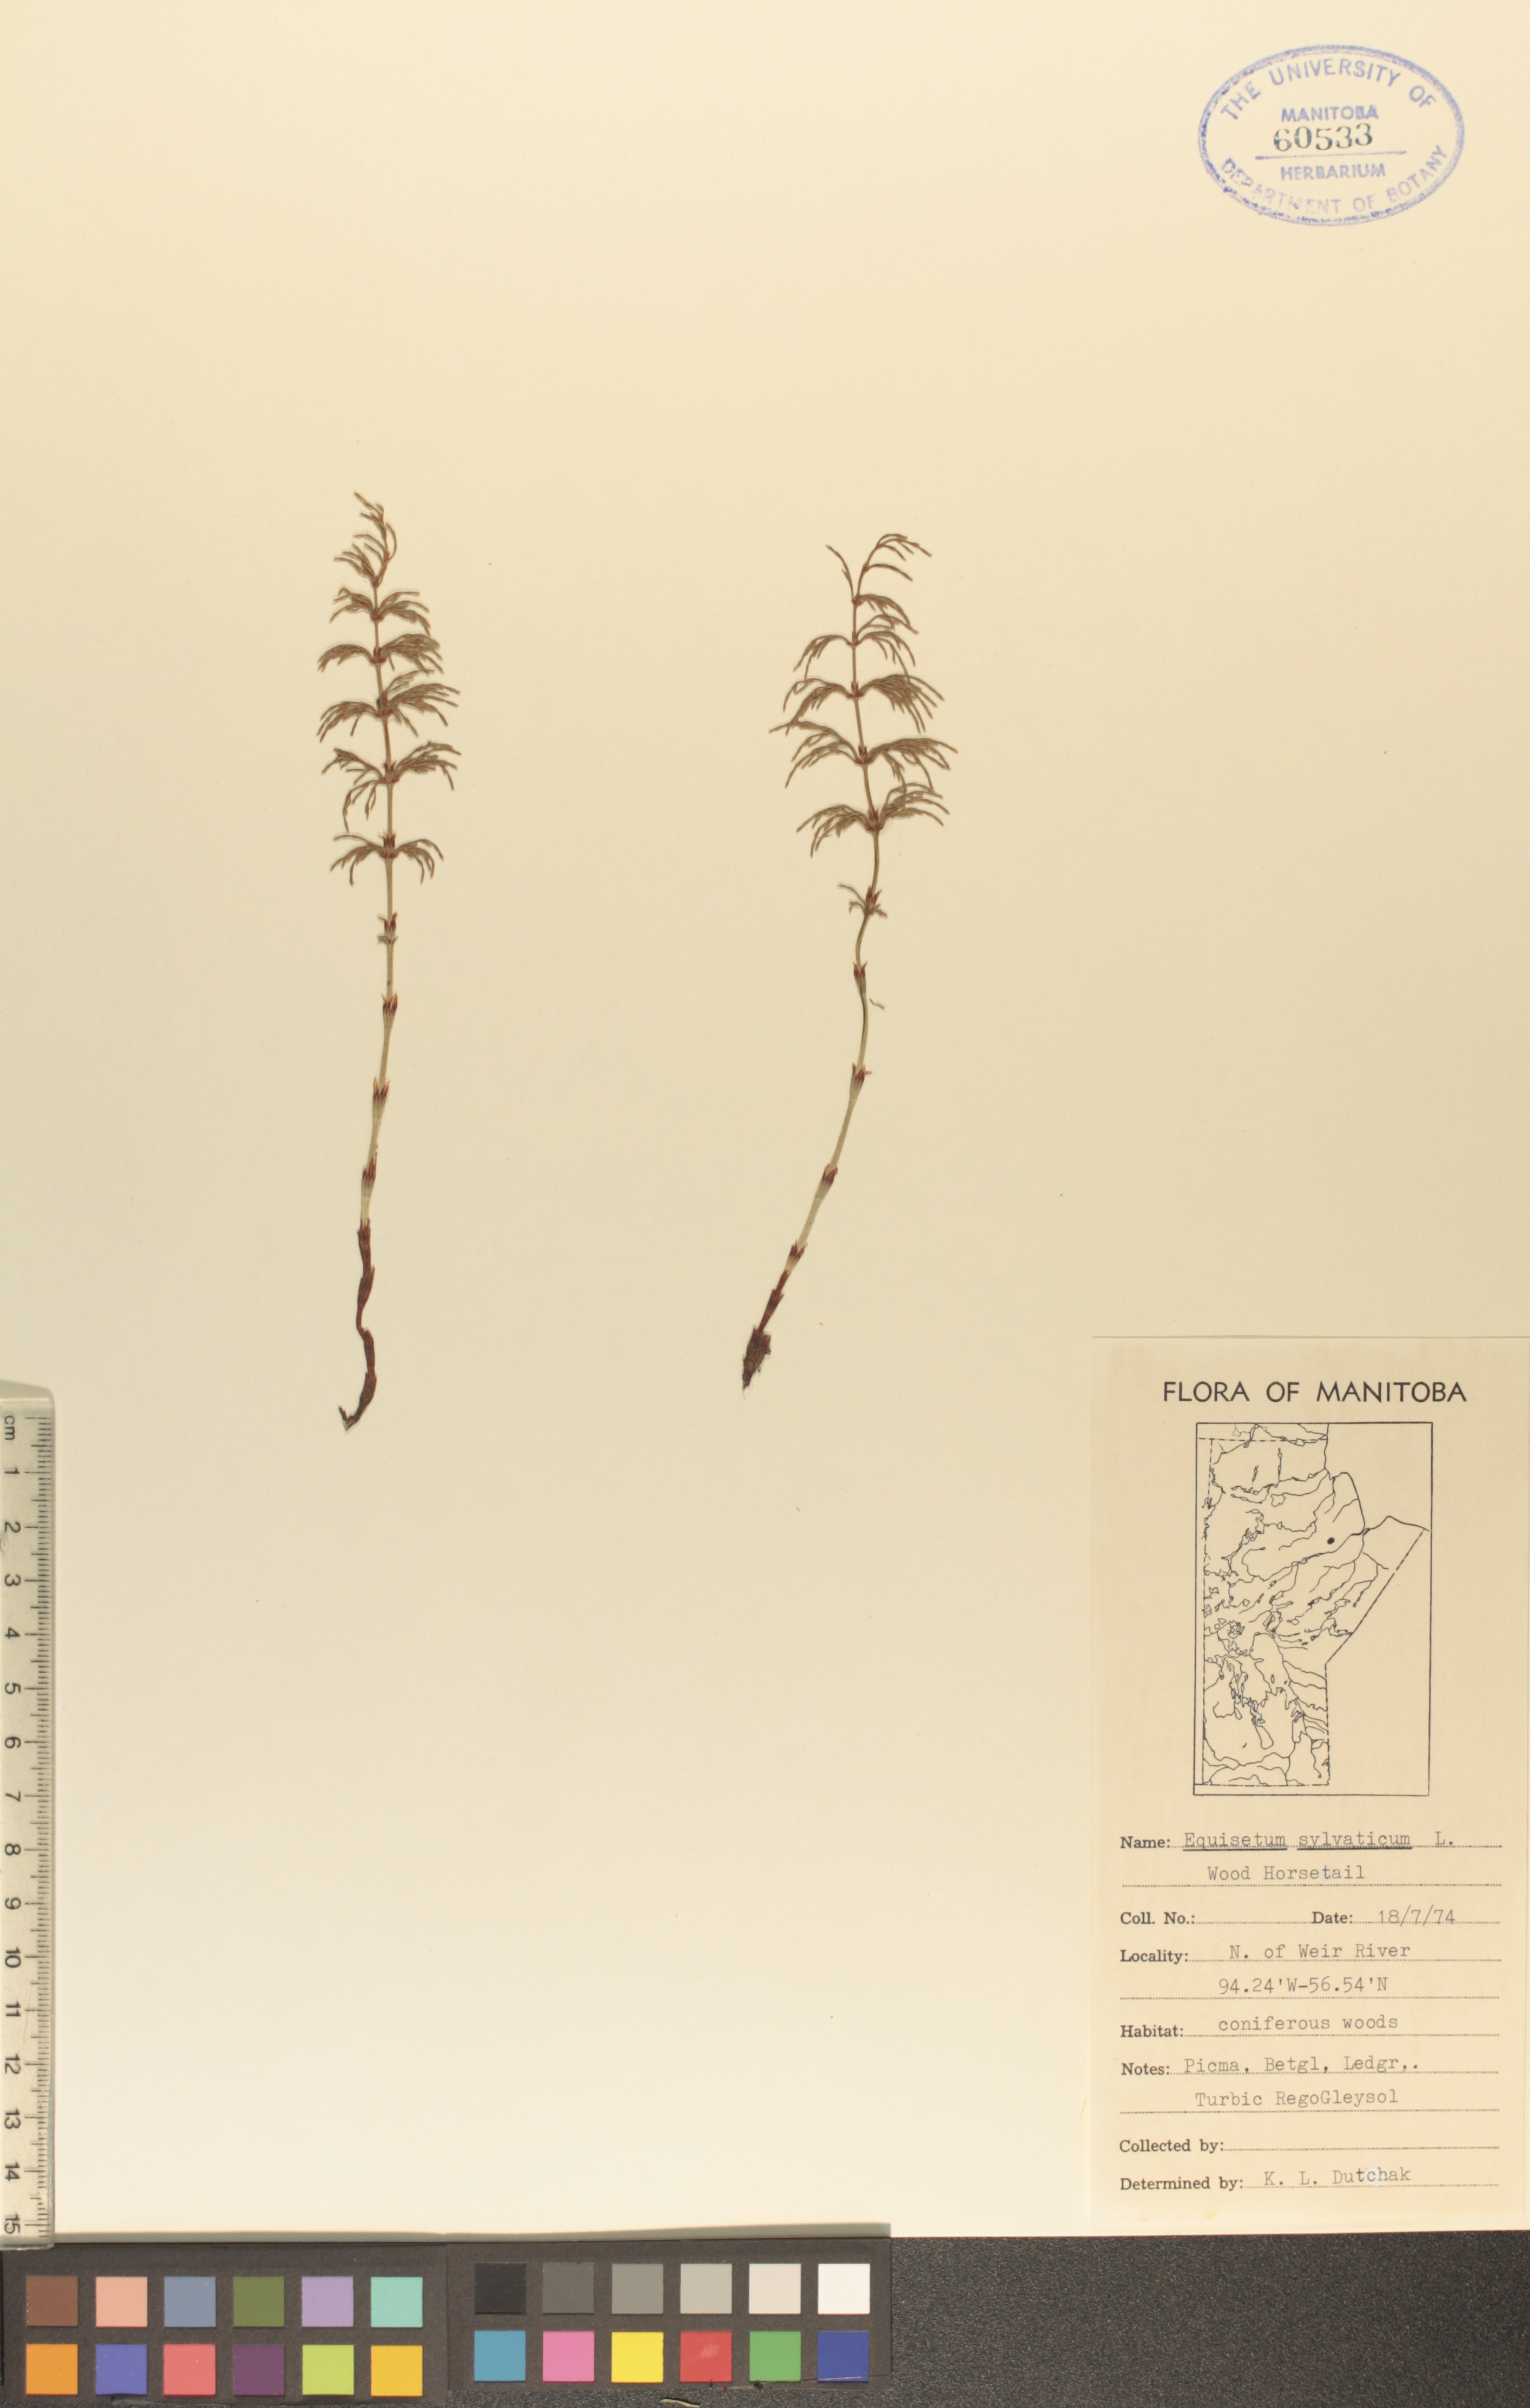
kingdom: Plantae
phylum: Tracheophyta
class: Polypodiopsida
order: Equisetales
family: Equisetaceae
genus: Equisetum
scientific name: Equisetum sylvaticum
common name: Wood horsetail
